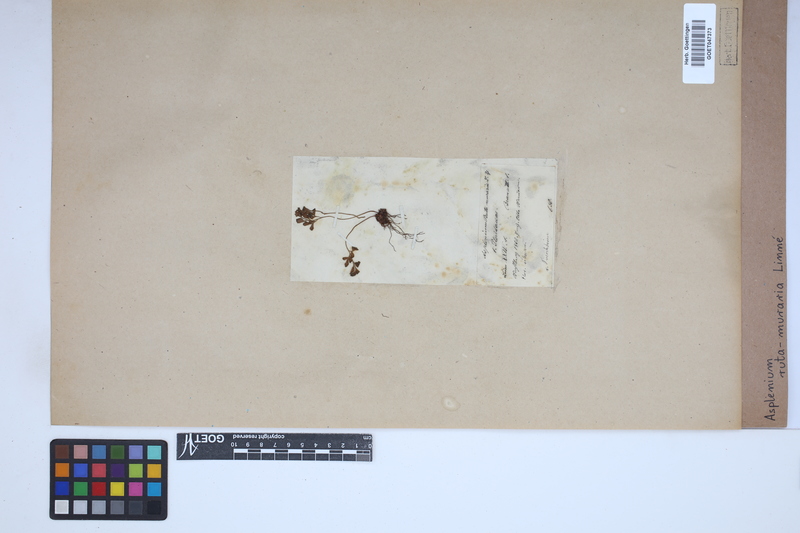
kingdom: Plantae
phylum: Tracheophyta
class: Polypodiopsida
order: Polypodiales
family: Aspleniaceae
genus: Asplenium
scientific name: Asplenium ruta-muraria
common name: Wall-rue
